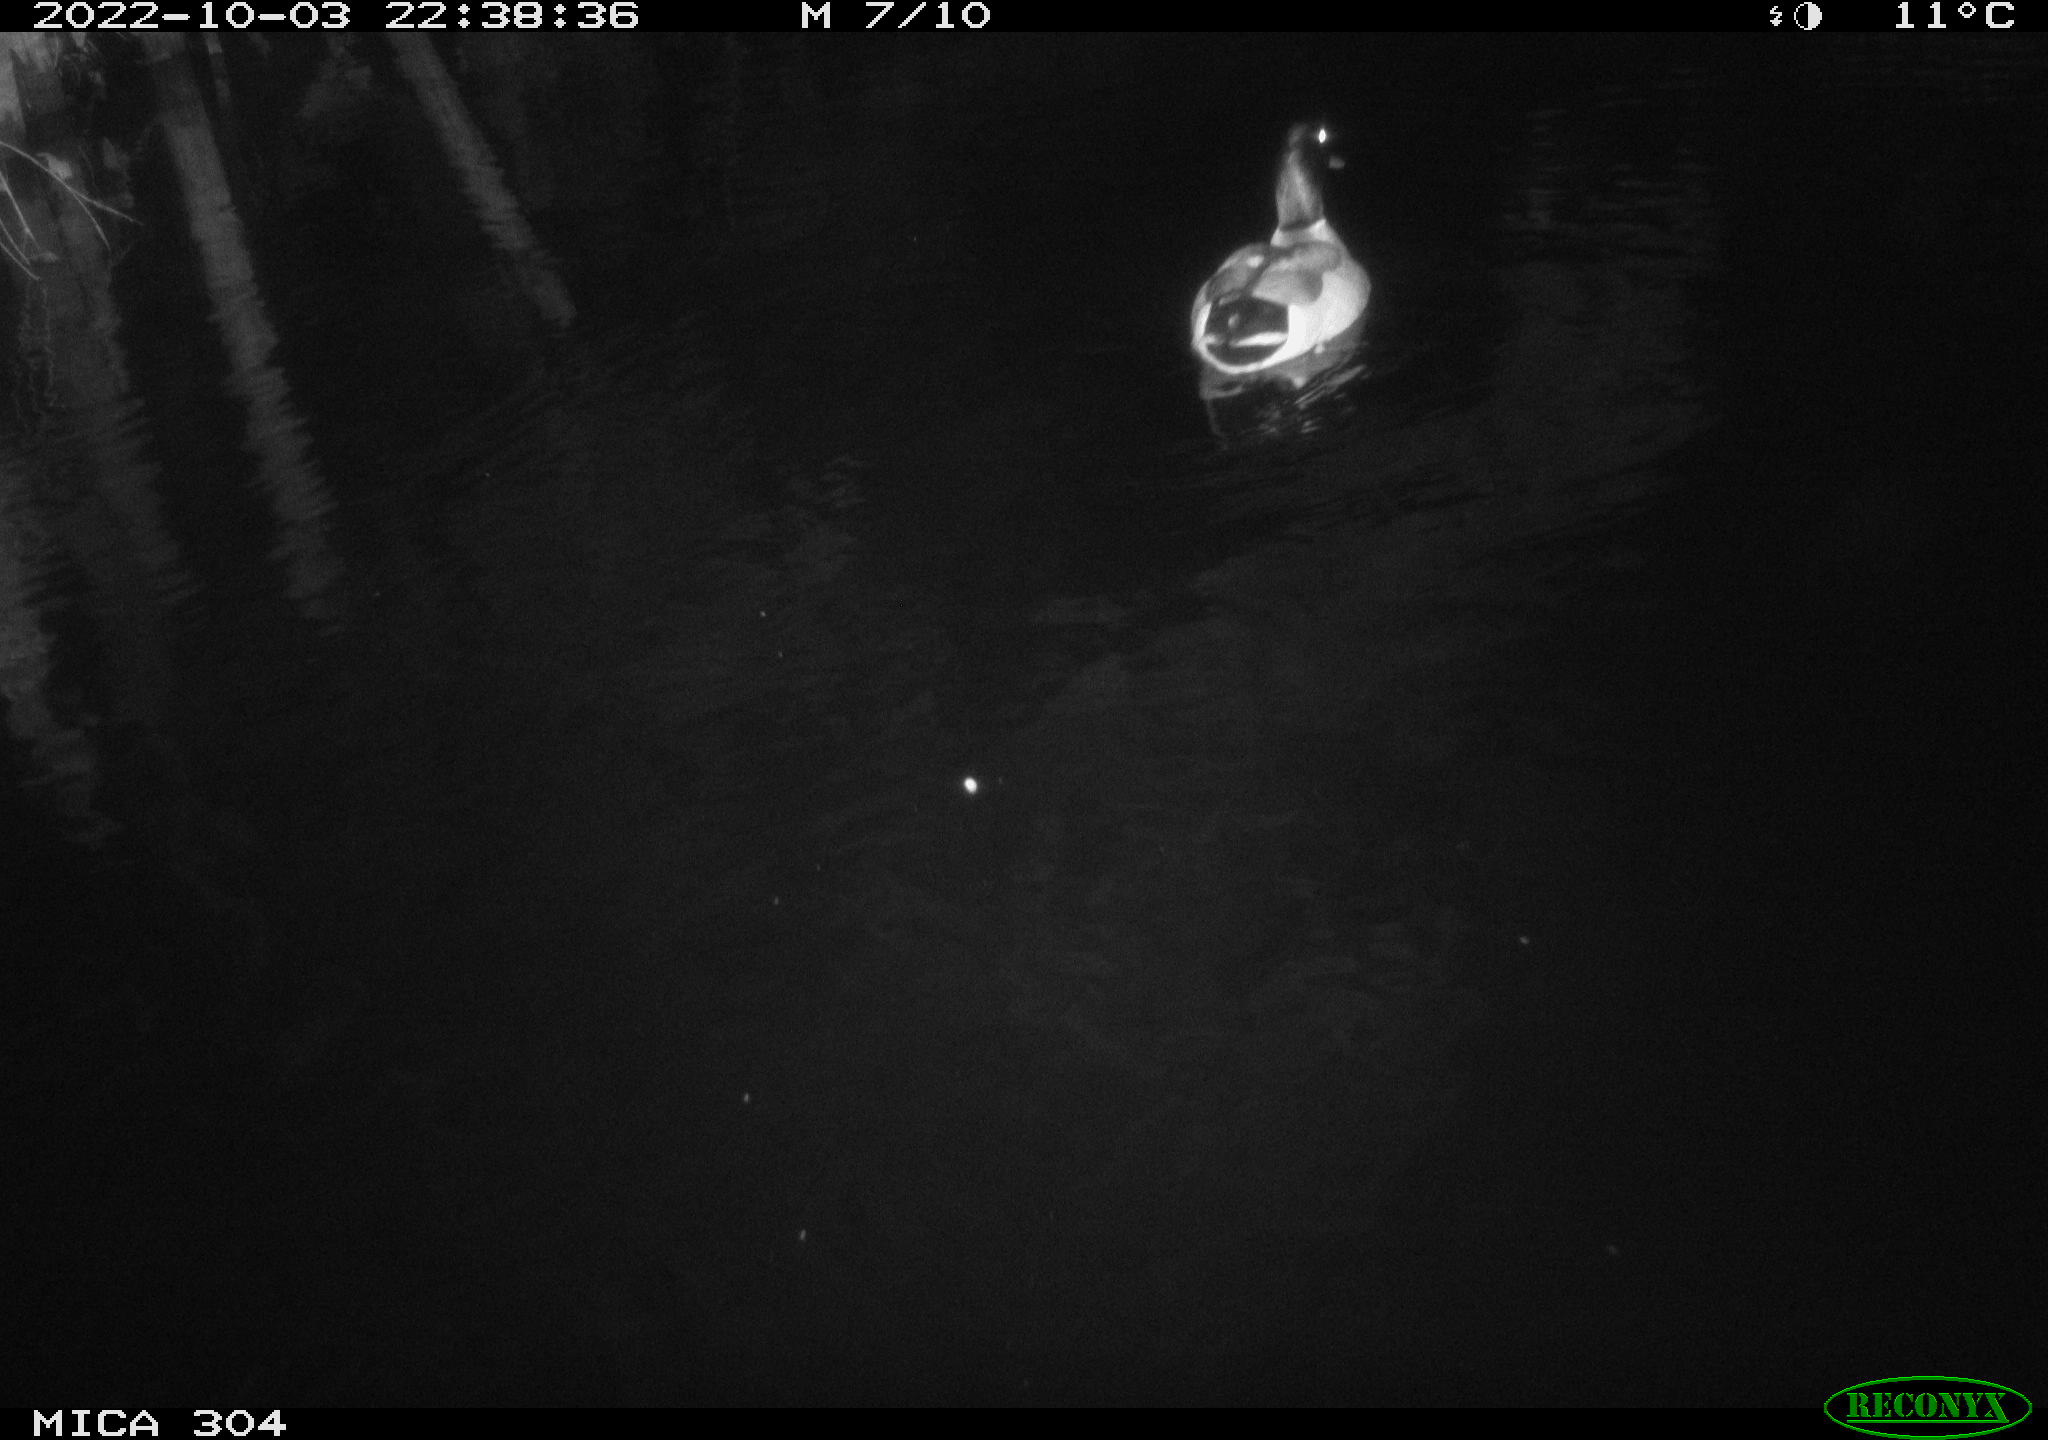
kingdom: Animalia
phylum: Chordata
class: Aves
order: Anseriformes
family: Anatidae
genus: Anas
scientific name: Anas
